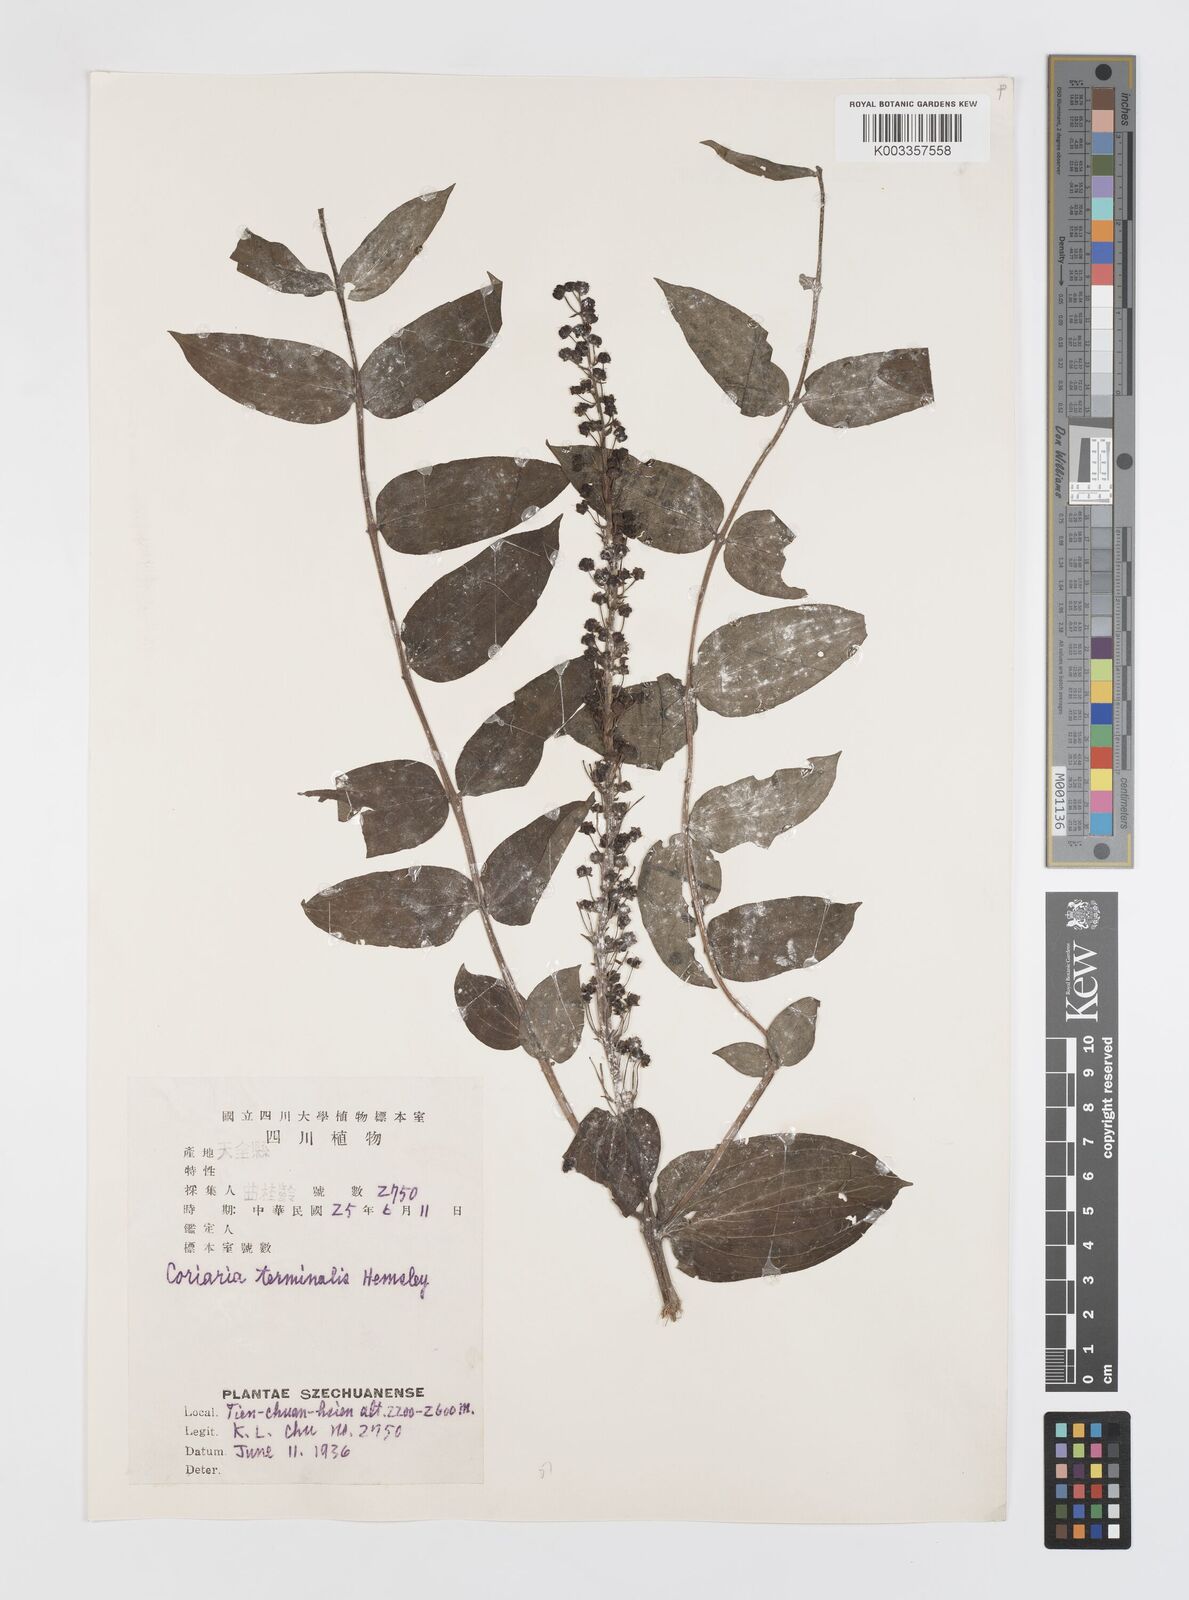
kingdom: Plantae
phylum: Tracheophyta
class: Magnoliopsida
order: Cucurbitales
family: Coriariaceae
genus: Coriaria
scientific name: Coriaria terminalis
